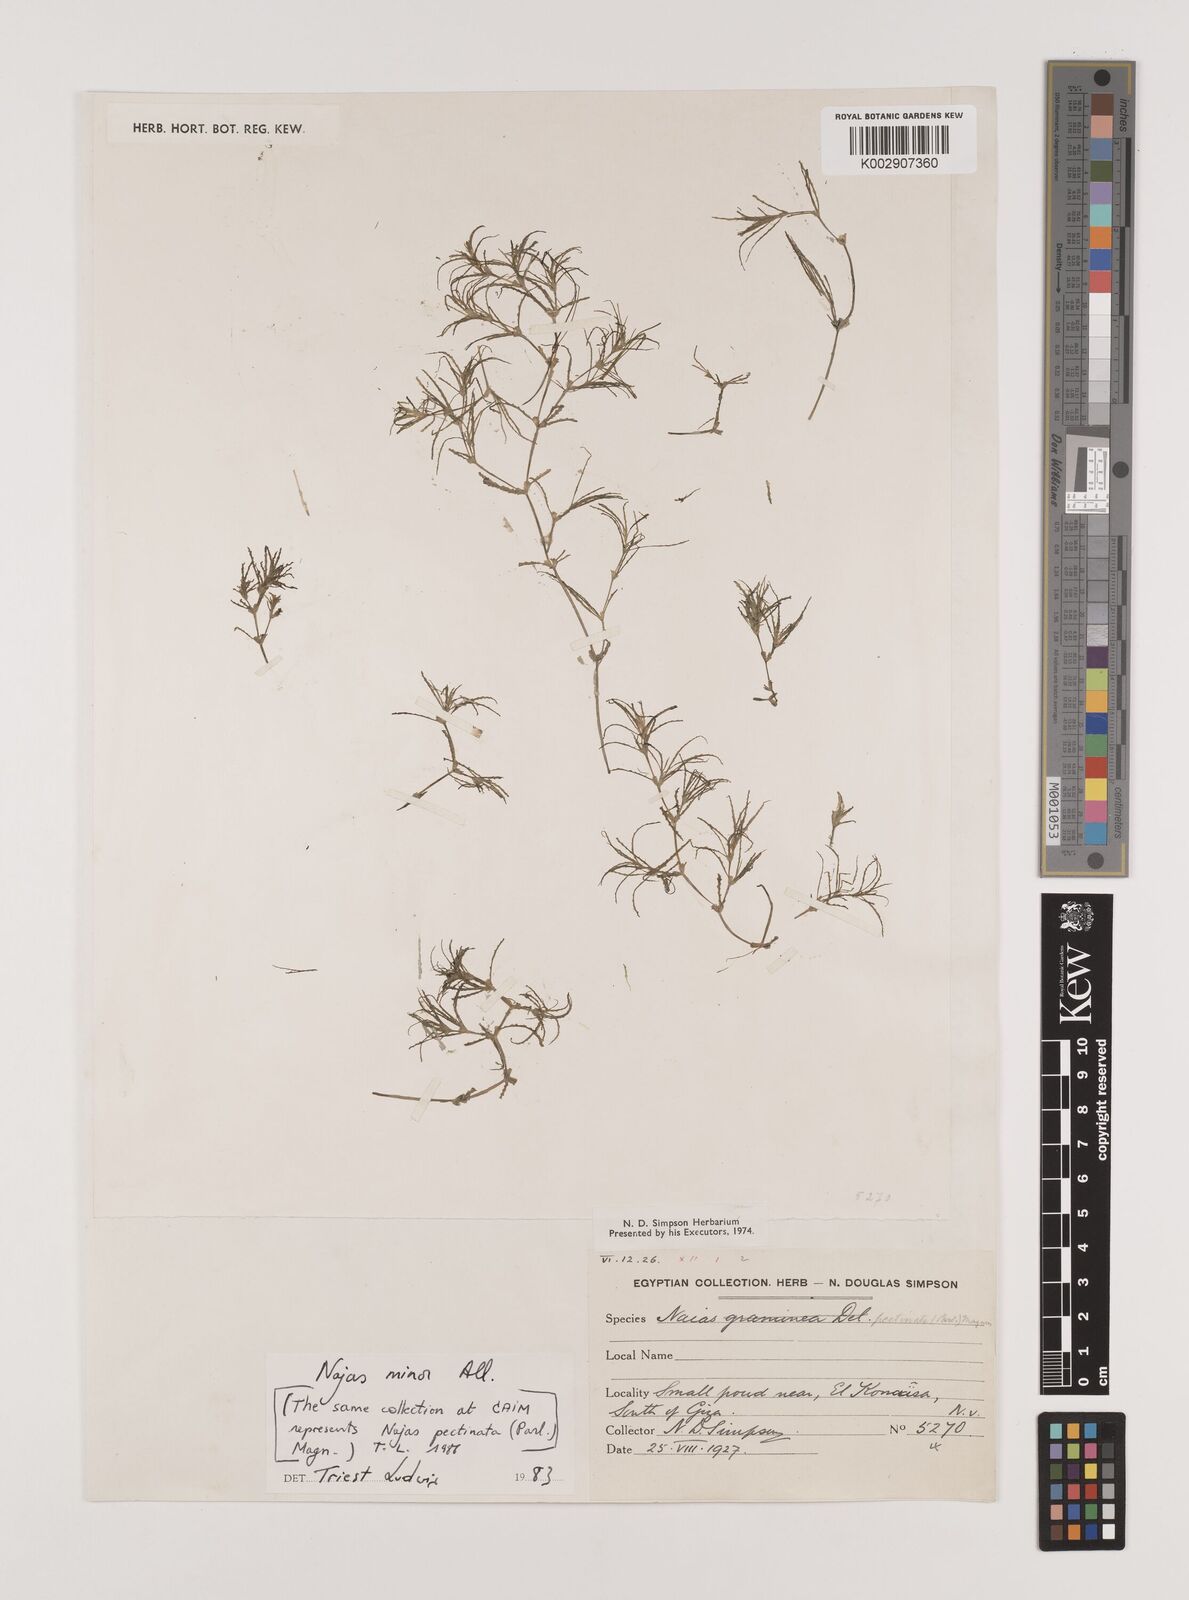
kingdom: Plantae
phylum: Tracheophyta
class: Liliopsida
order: Alismatales
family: Hydrocharitaceae
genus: Najas
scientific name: Najas minor
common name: Brittle naiad
